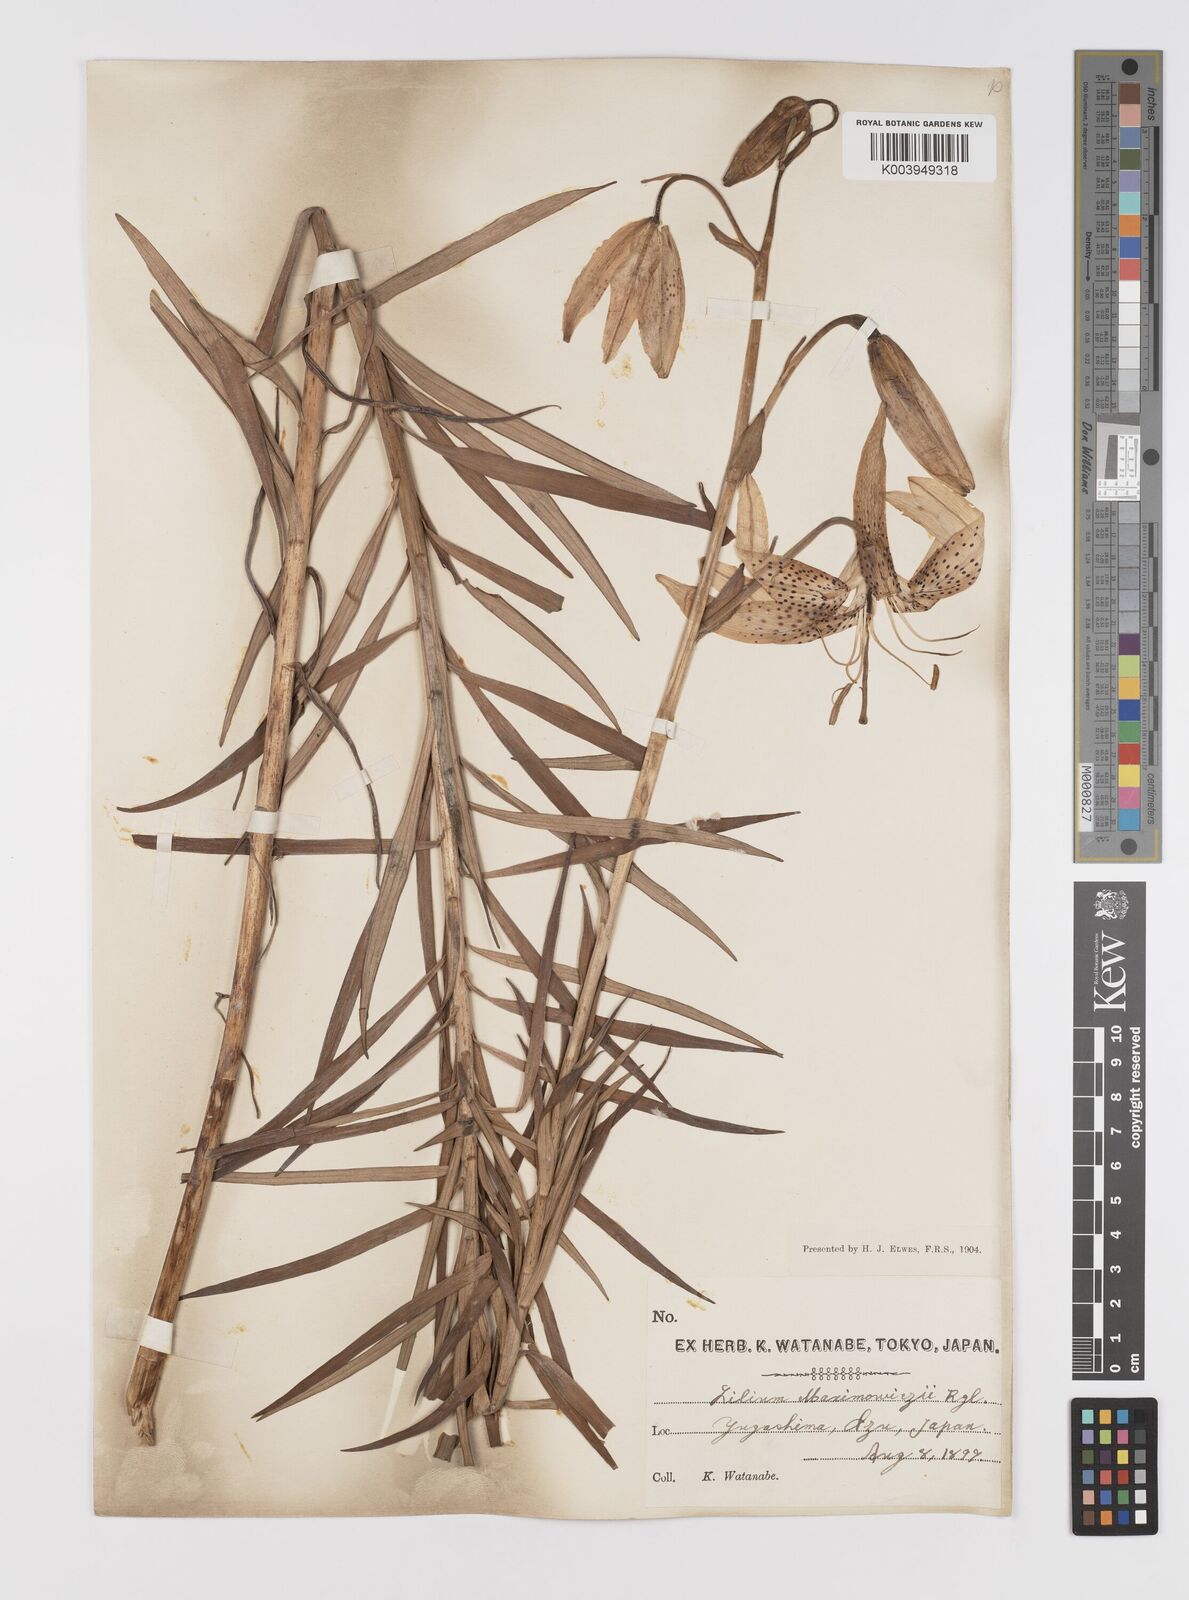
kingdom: Plantae
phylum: Tracheophyta
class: Liliopsida
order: Liliales
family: Liliaceae
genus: Lilium
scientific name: Lilium leichtlinii
